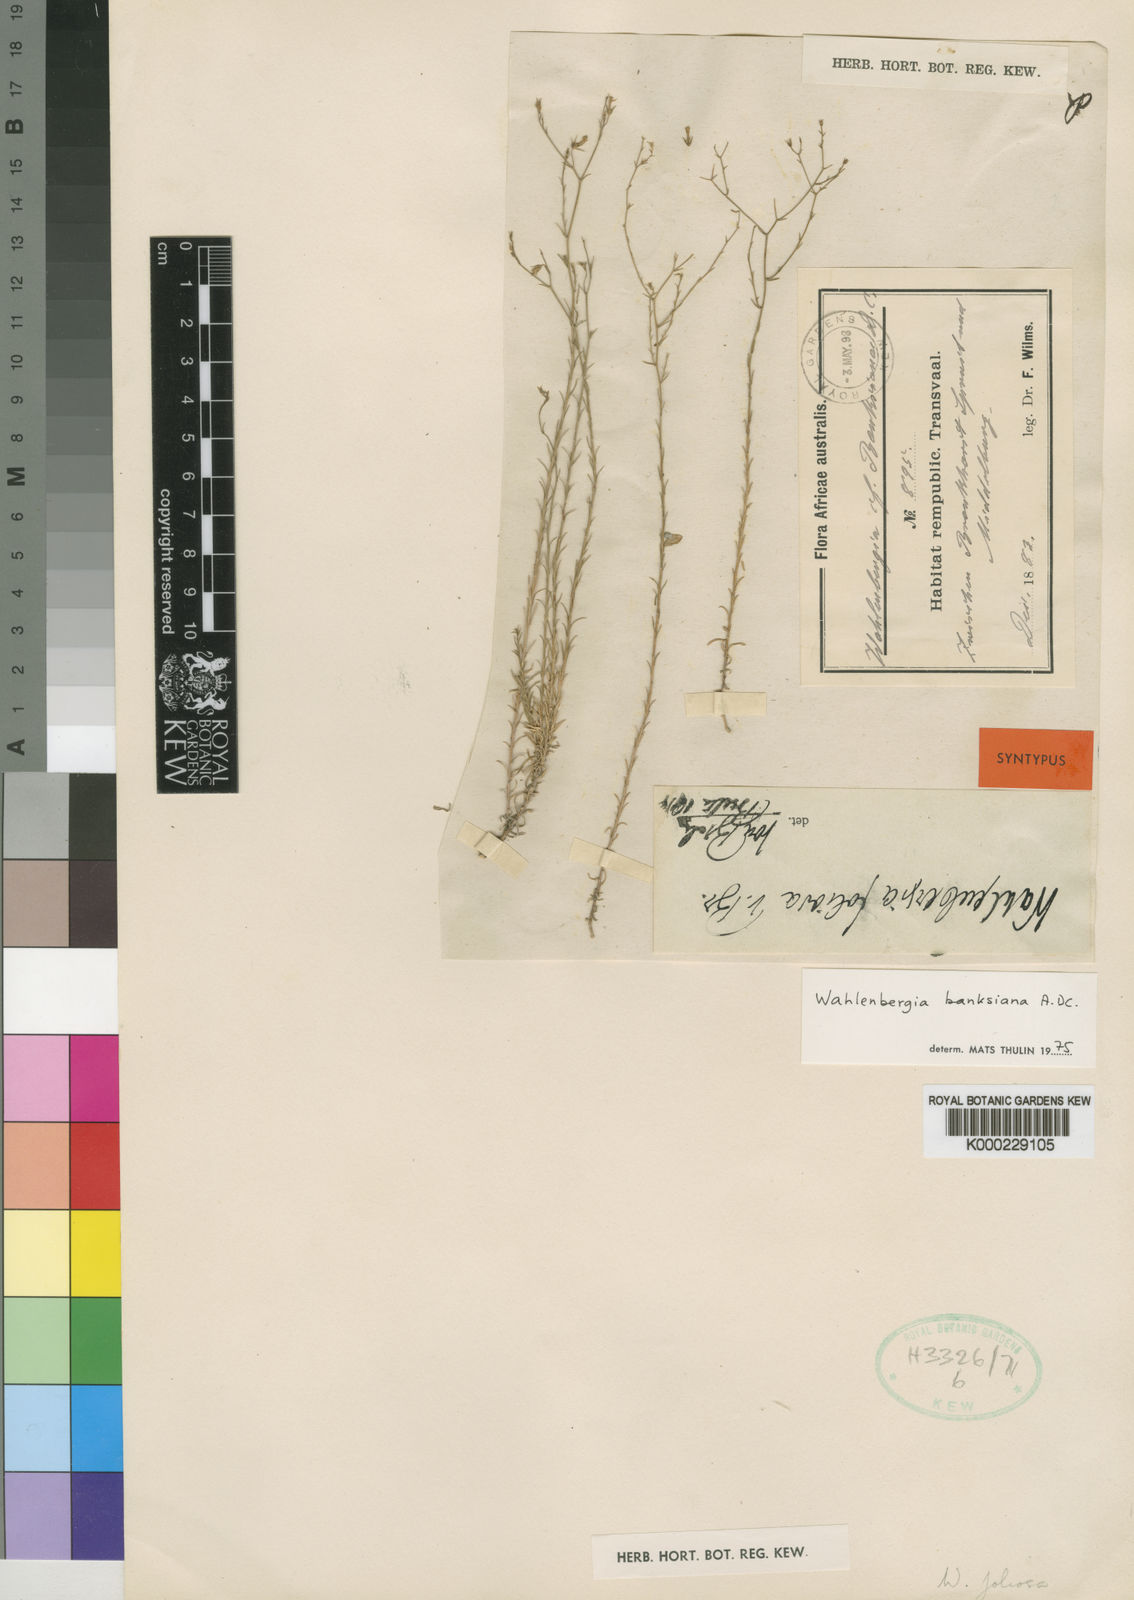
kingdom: Plantae
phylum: Tracheophyta
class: Magnoliopsida
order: Asterales
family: Campanulaceae
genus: Wahlenbergia
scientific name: Wahlenbergia banksiana
